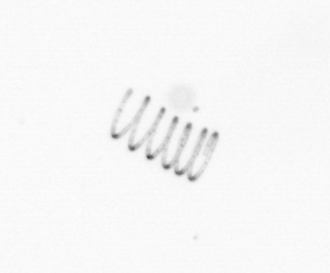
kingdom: Chromista
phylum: Ochrophyta
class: Bacillariophyceae
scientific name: Bacillariophyceae
